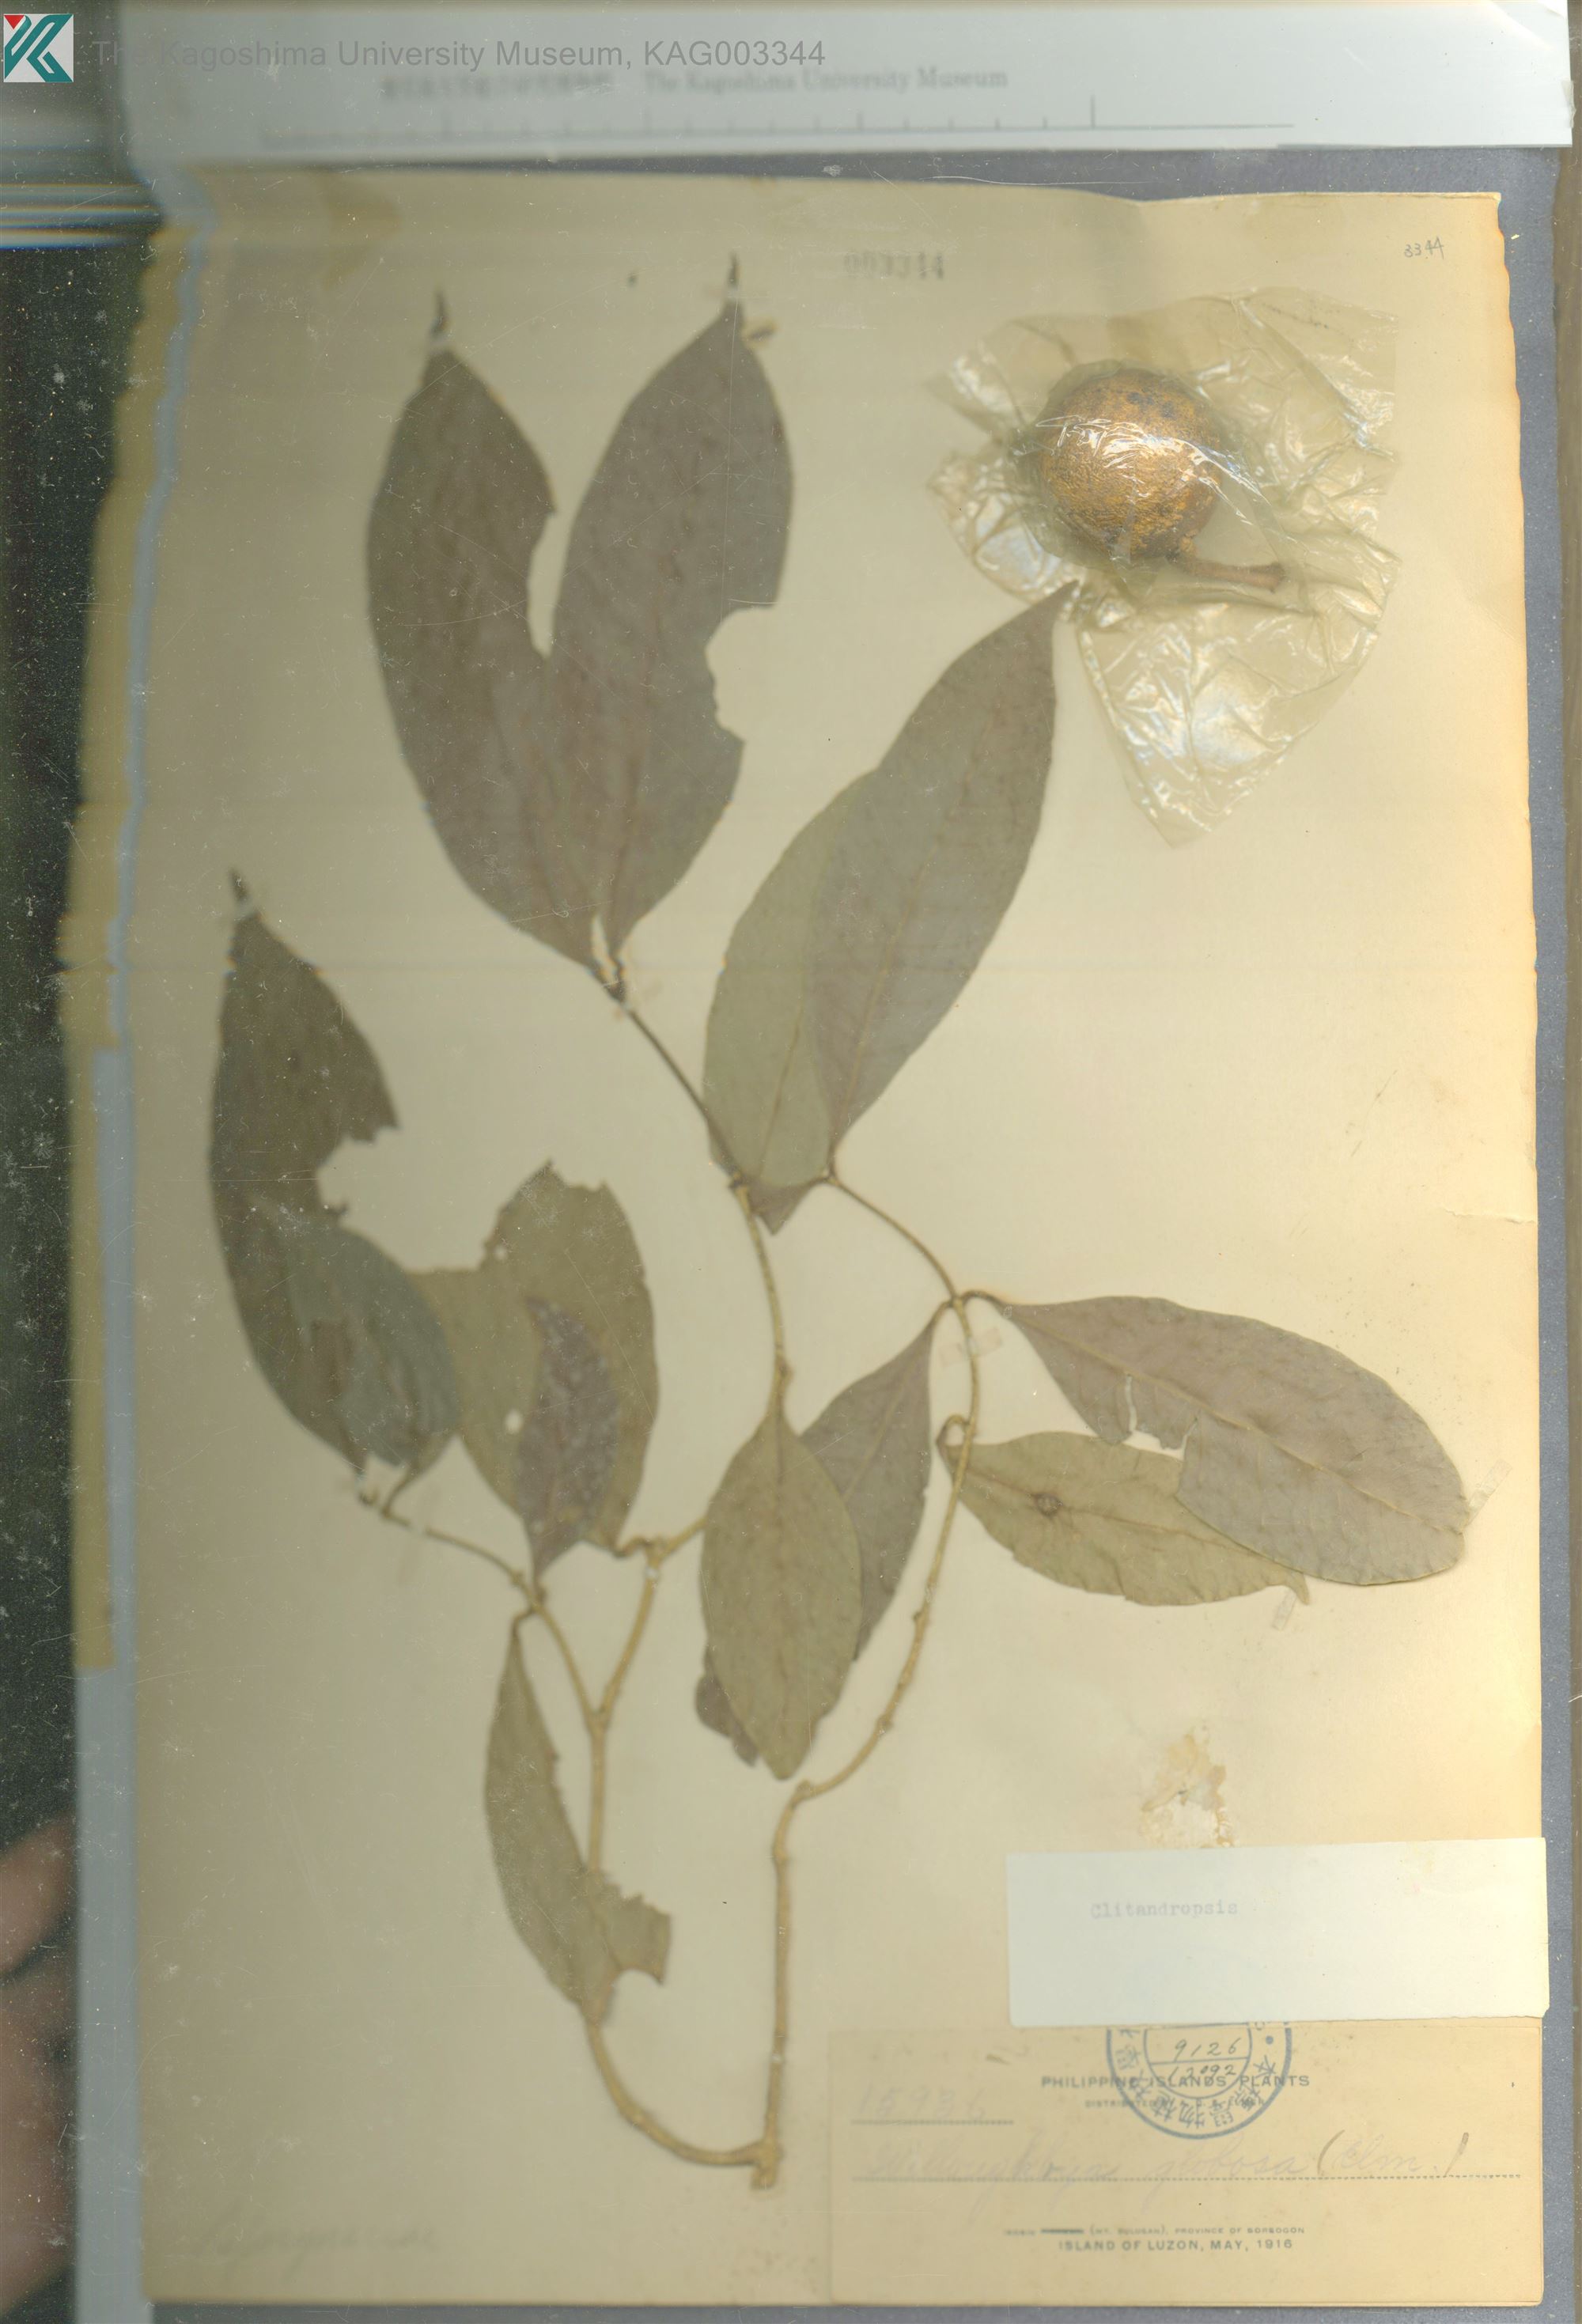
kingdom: Plantae
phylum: Tracheophyta
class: Magnoliopsida
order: Gentianales
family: Apocynaceae
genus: Melodinus
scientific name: Melodinus
